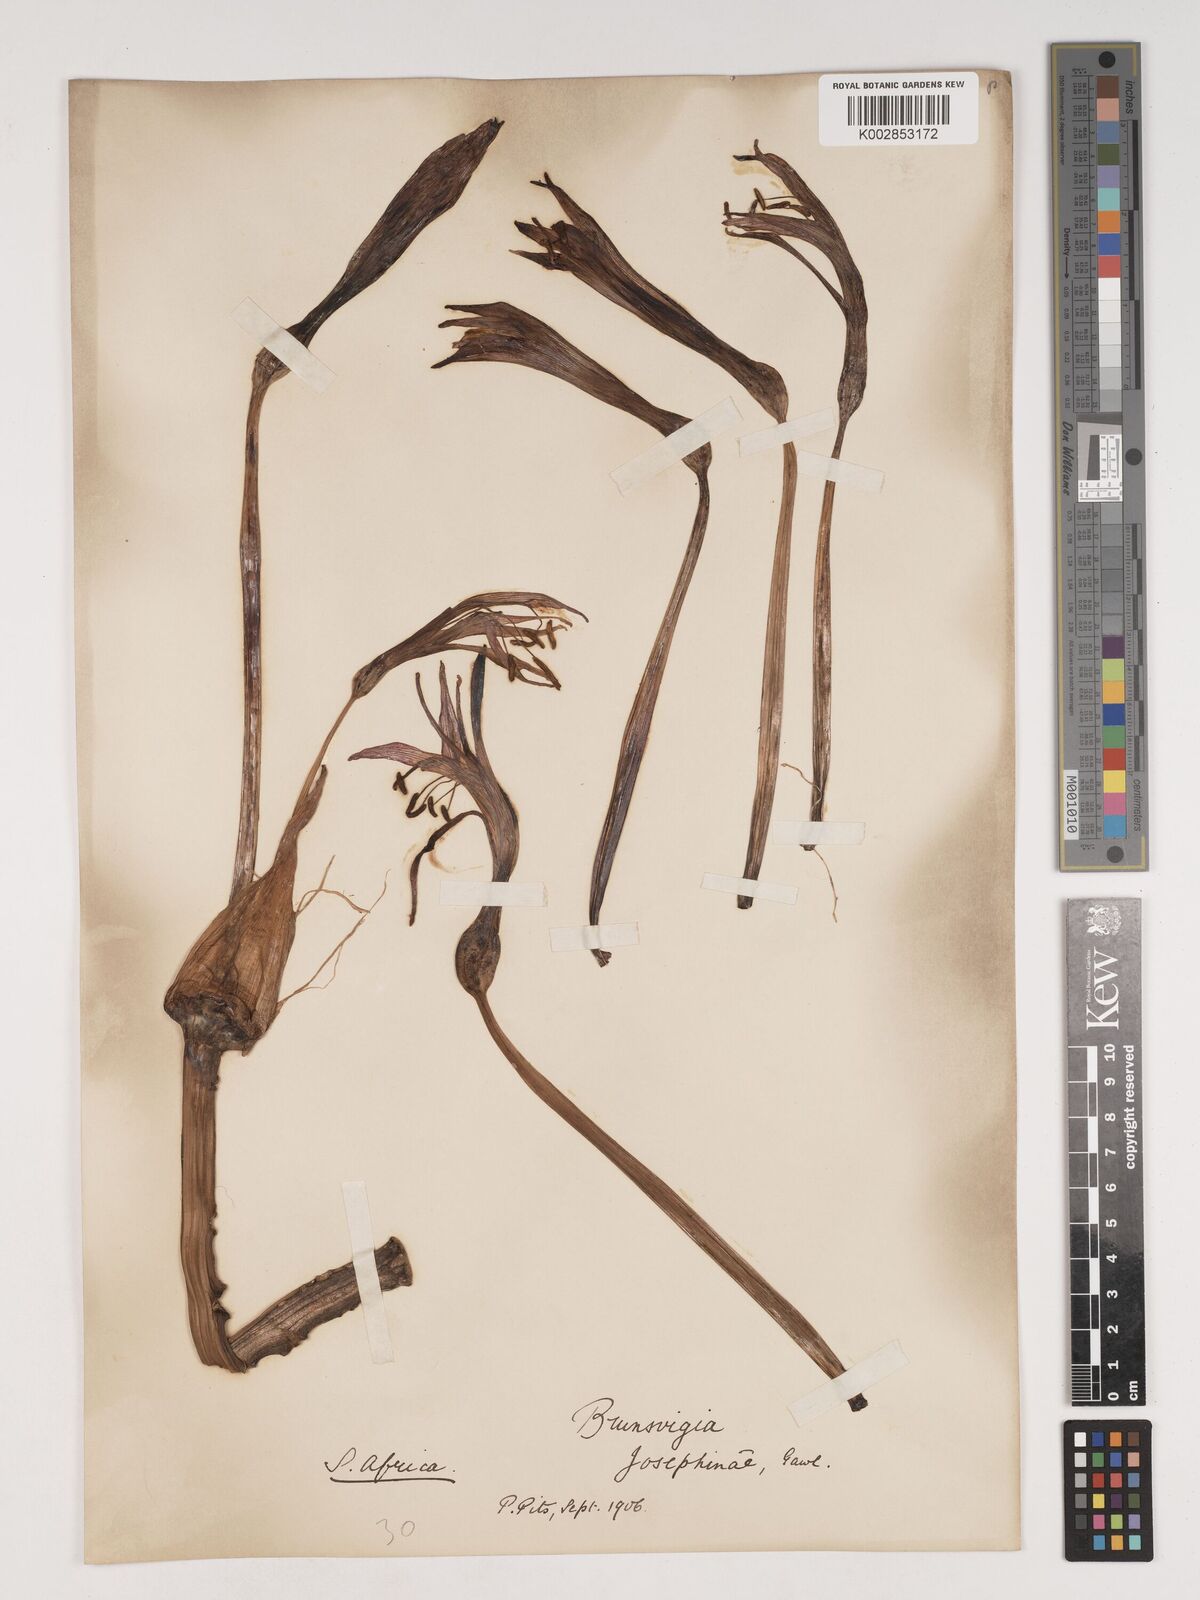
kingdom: Plantae
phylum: Tracheophyta
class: Liliopsida
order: Asparagales
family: Amaryllidaceae
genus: Brunsvigia
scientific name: Brunsvigia josephinae
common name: Josephine's-lily
